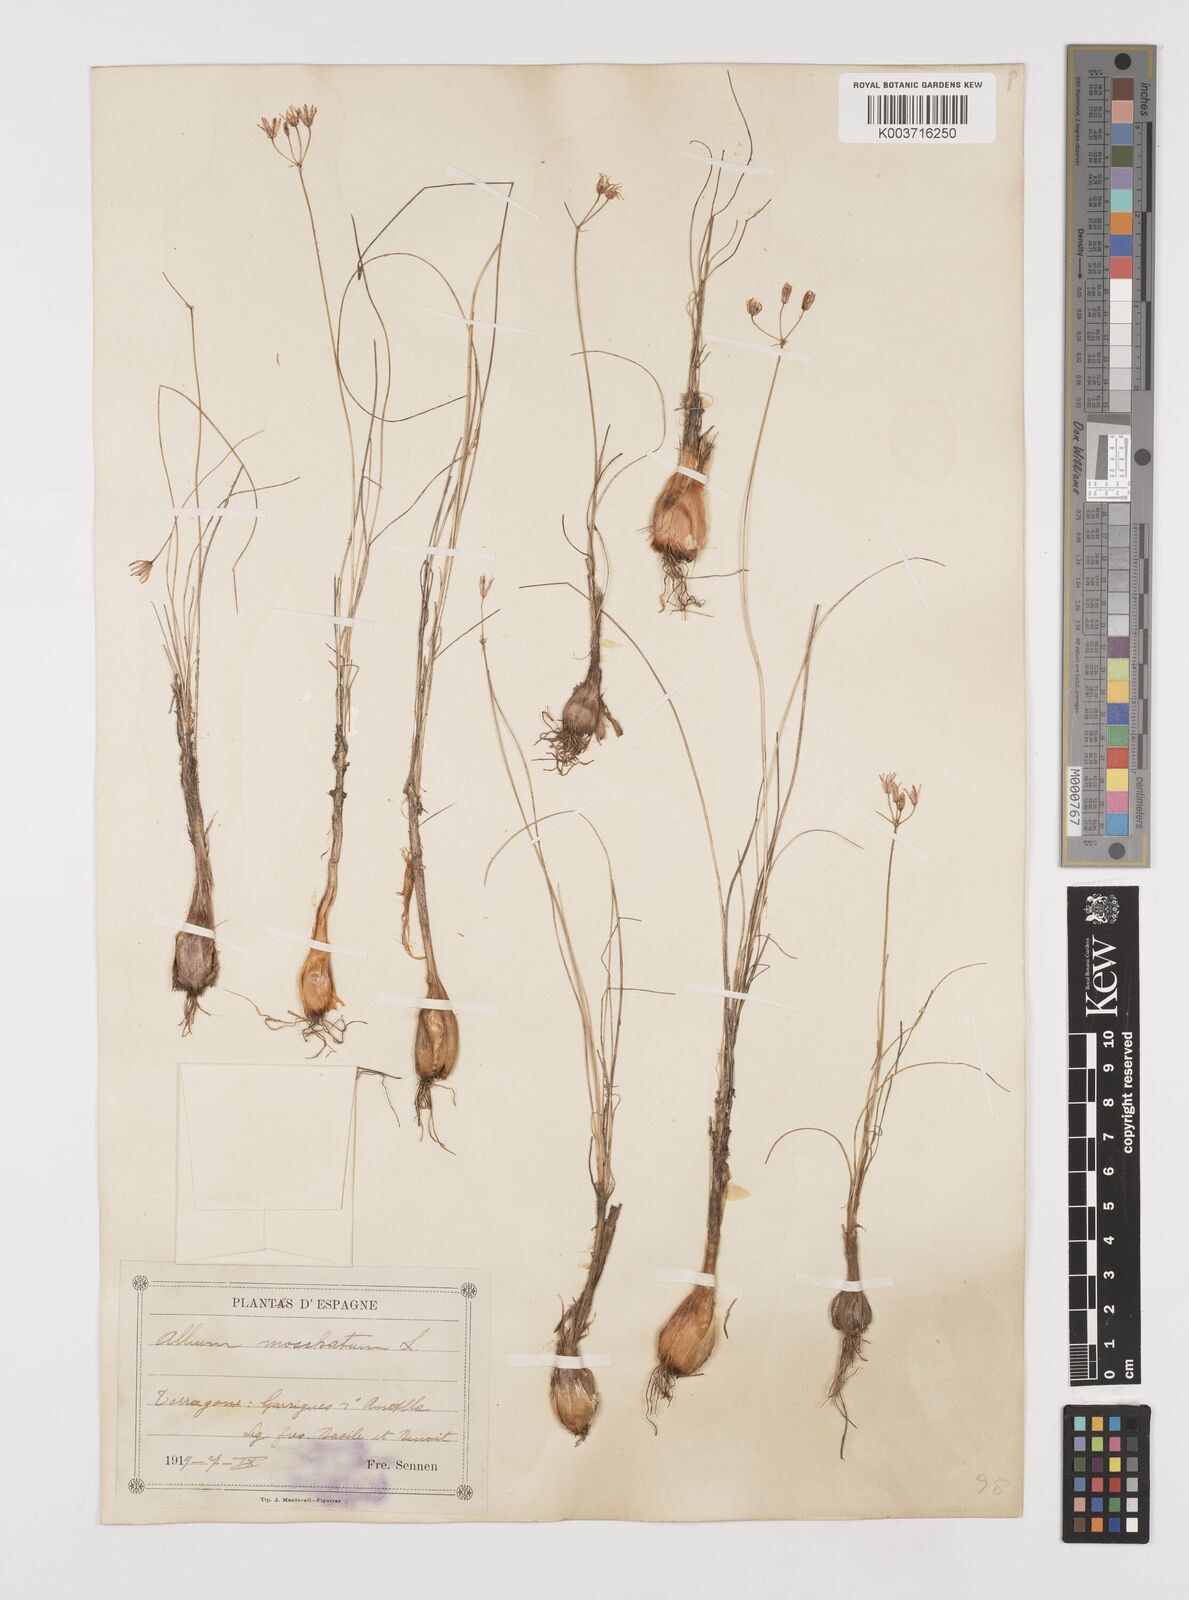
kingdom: Plantae
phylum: Tracheophyta
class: Liliopsida
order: Asparagales
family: Amaryllidaceae
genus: Allium
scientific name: Allium moschatum
